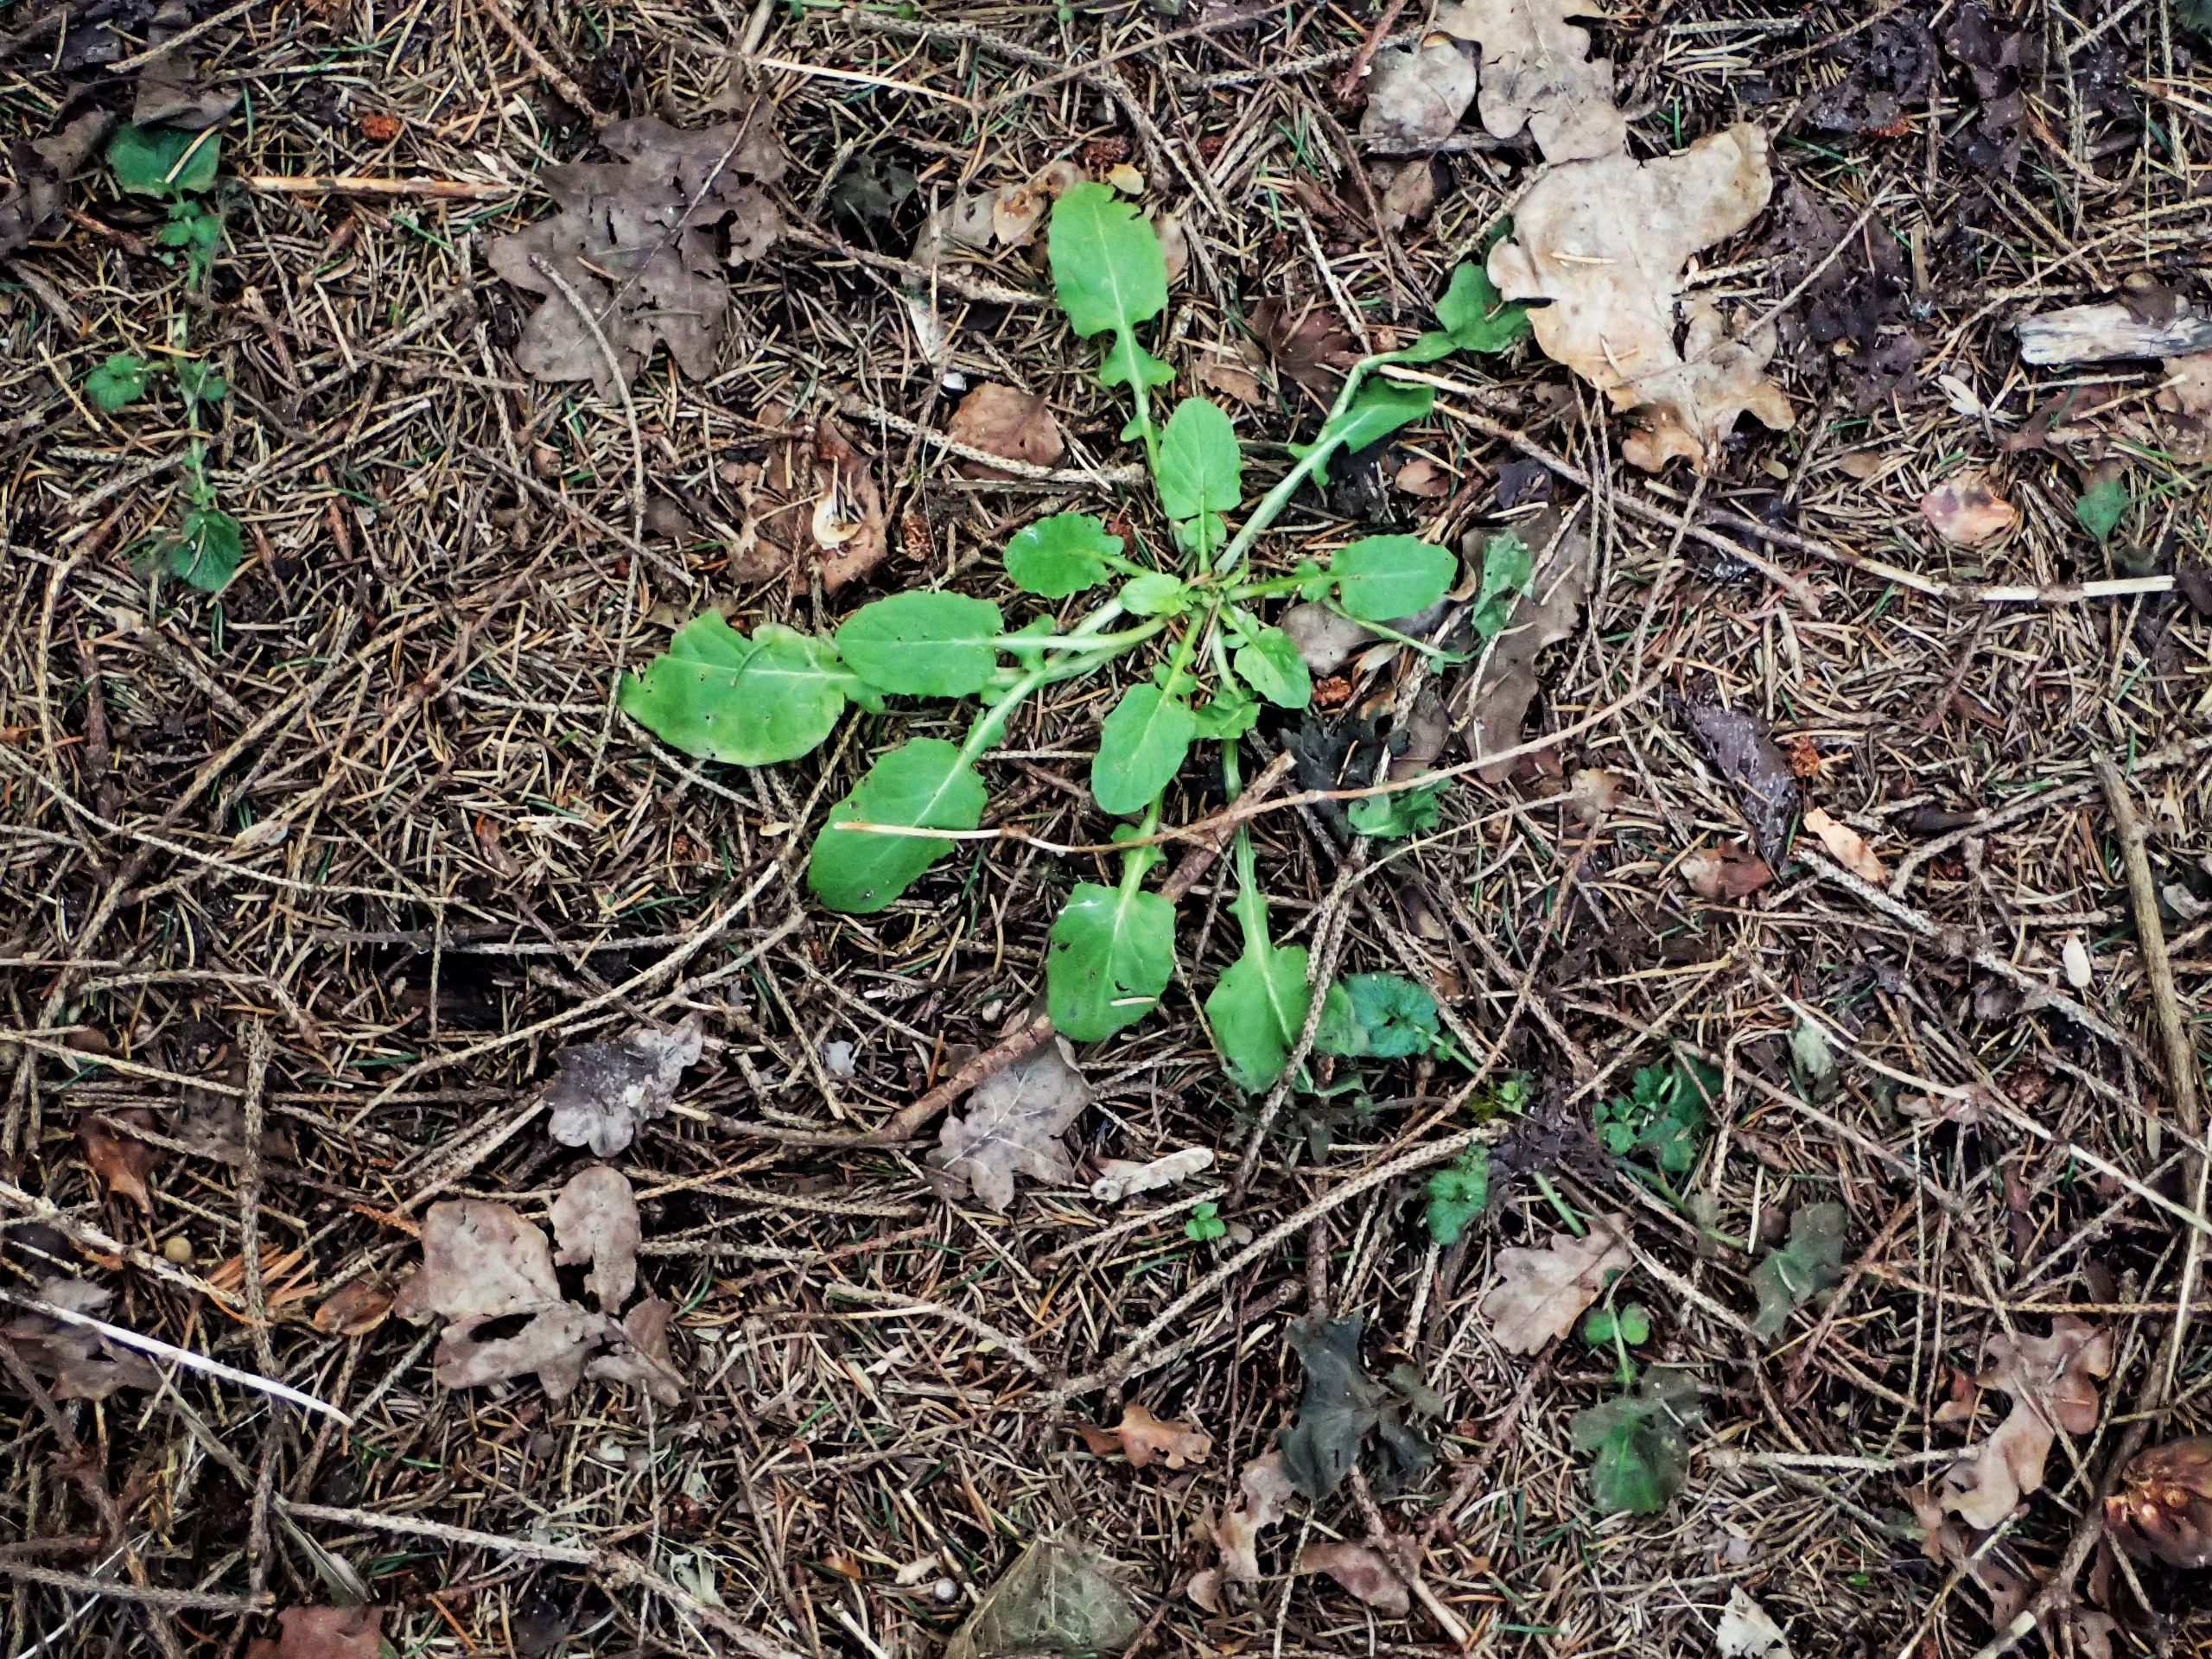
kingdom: Plantae
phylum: Tracheophyta
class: Magnoliopsida
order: Asterales
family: Asteraceae
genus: Lapsana
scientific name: Lapsana communis
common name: Haremad
